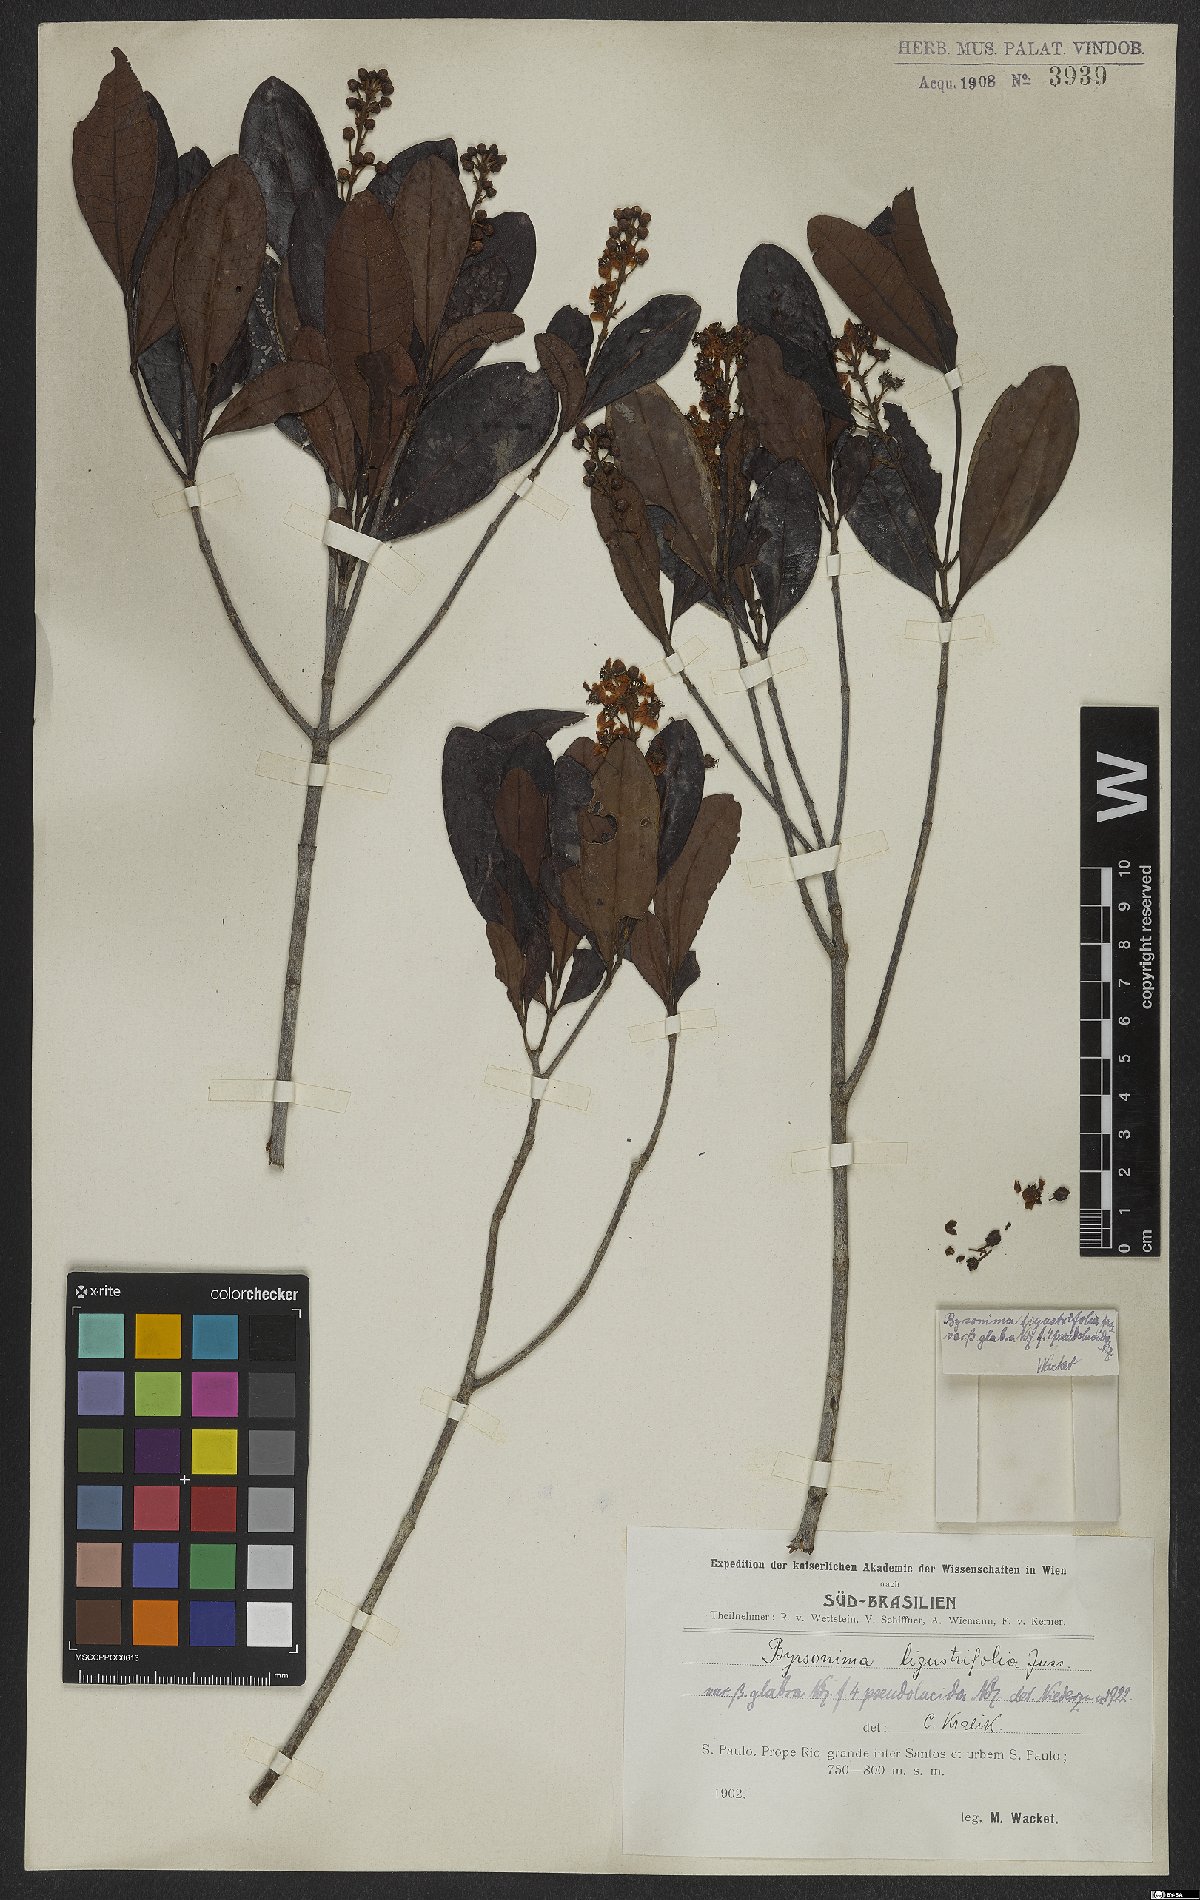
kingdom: Plantae
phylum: Tracheophyta
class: Magnoliopsida
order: Malpighiales
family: Malpighiaceae
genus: Byrsonima
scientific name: Byrsonima ligustrifolia
